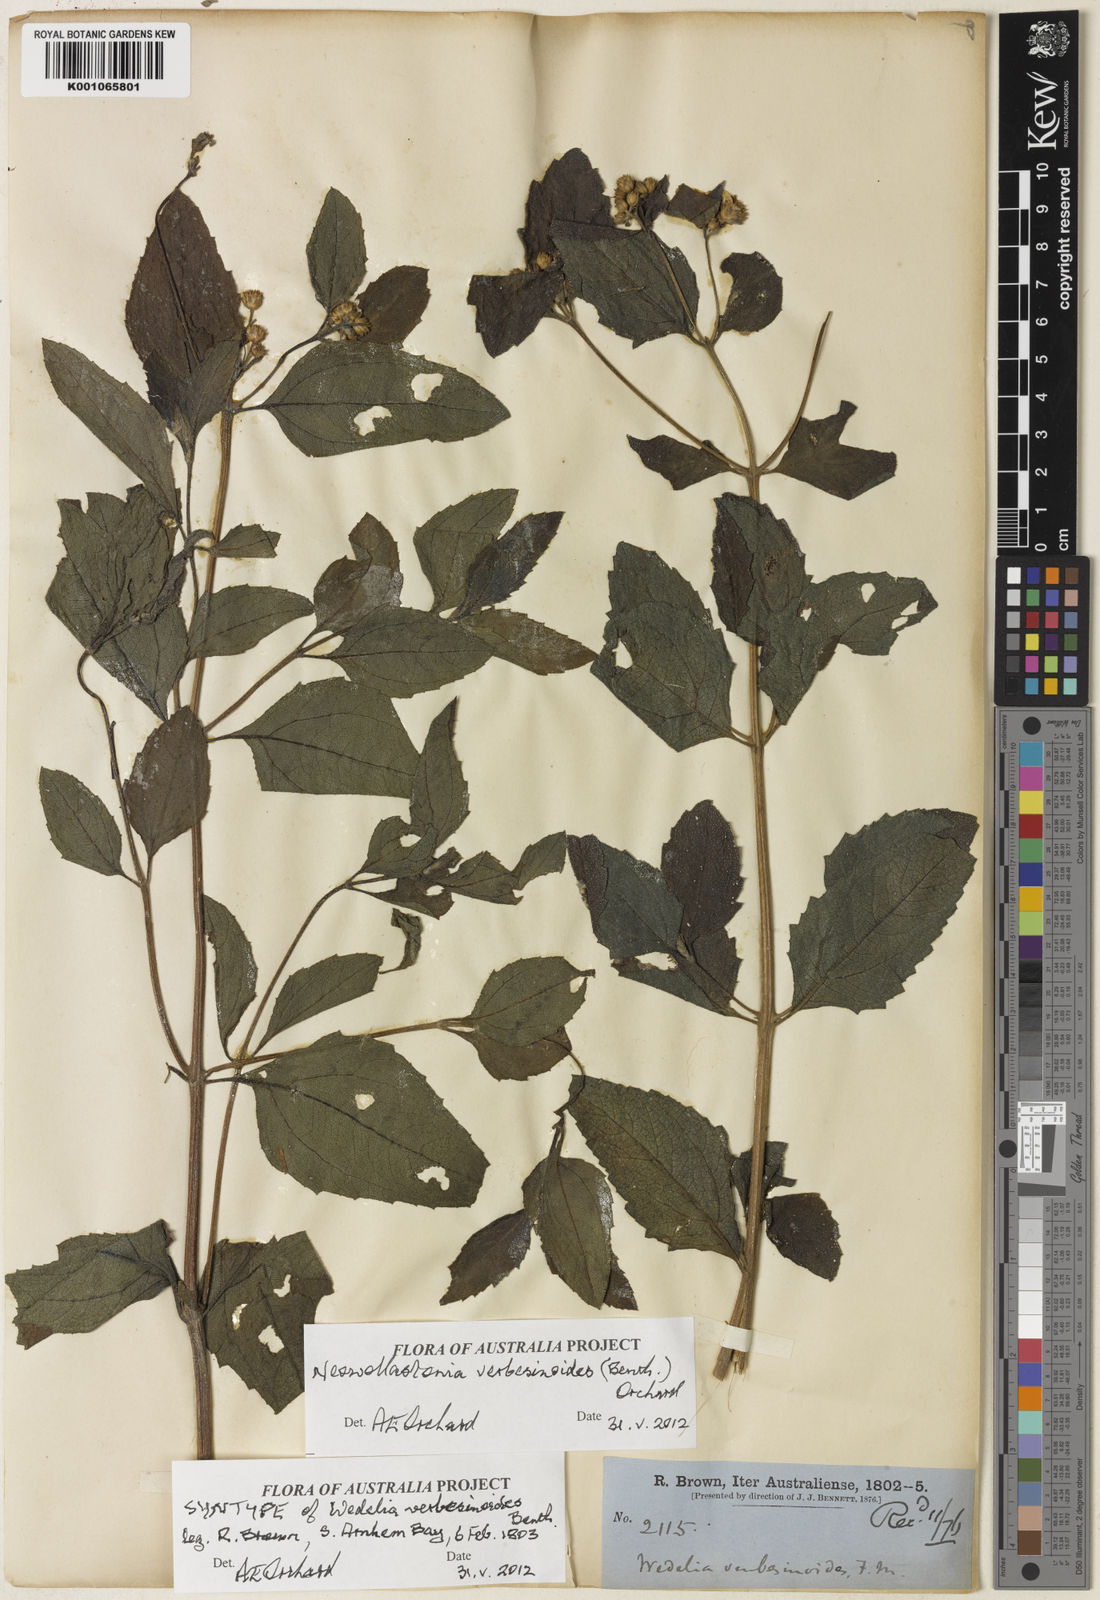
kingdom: Plantae
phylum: Tracheophyta
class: Magnoliopsida
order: Asterales
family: Asteraceae
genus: Apowollastonia
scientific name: Apowollastonia verbesinoides
